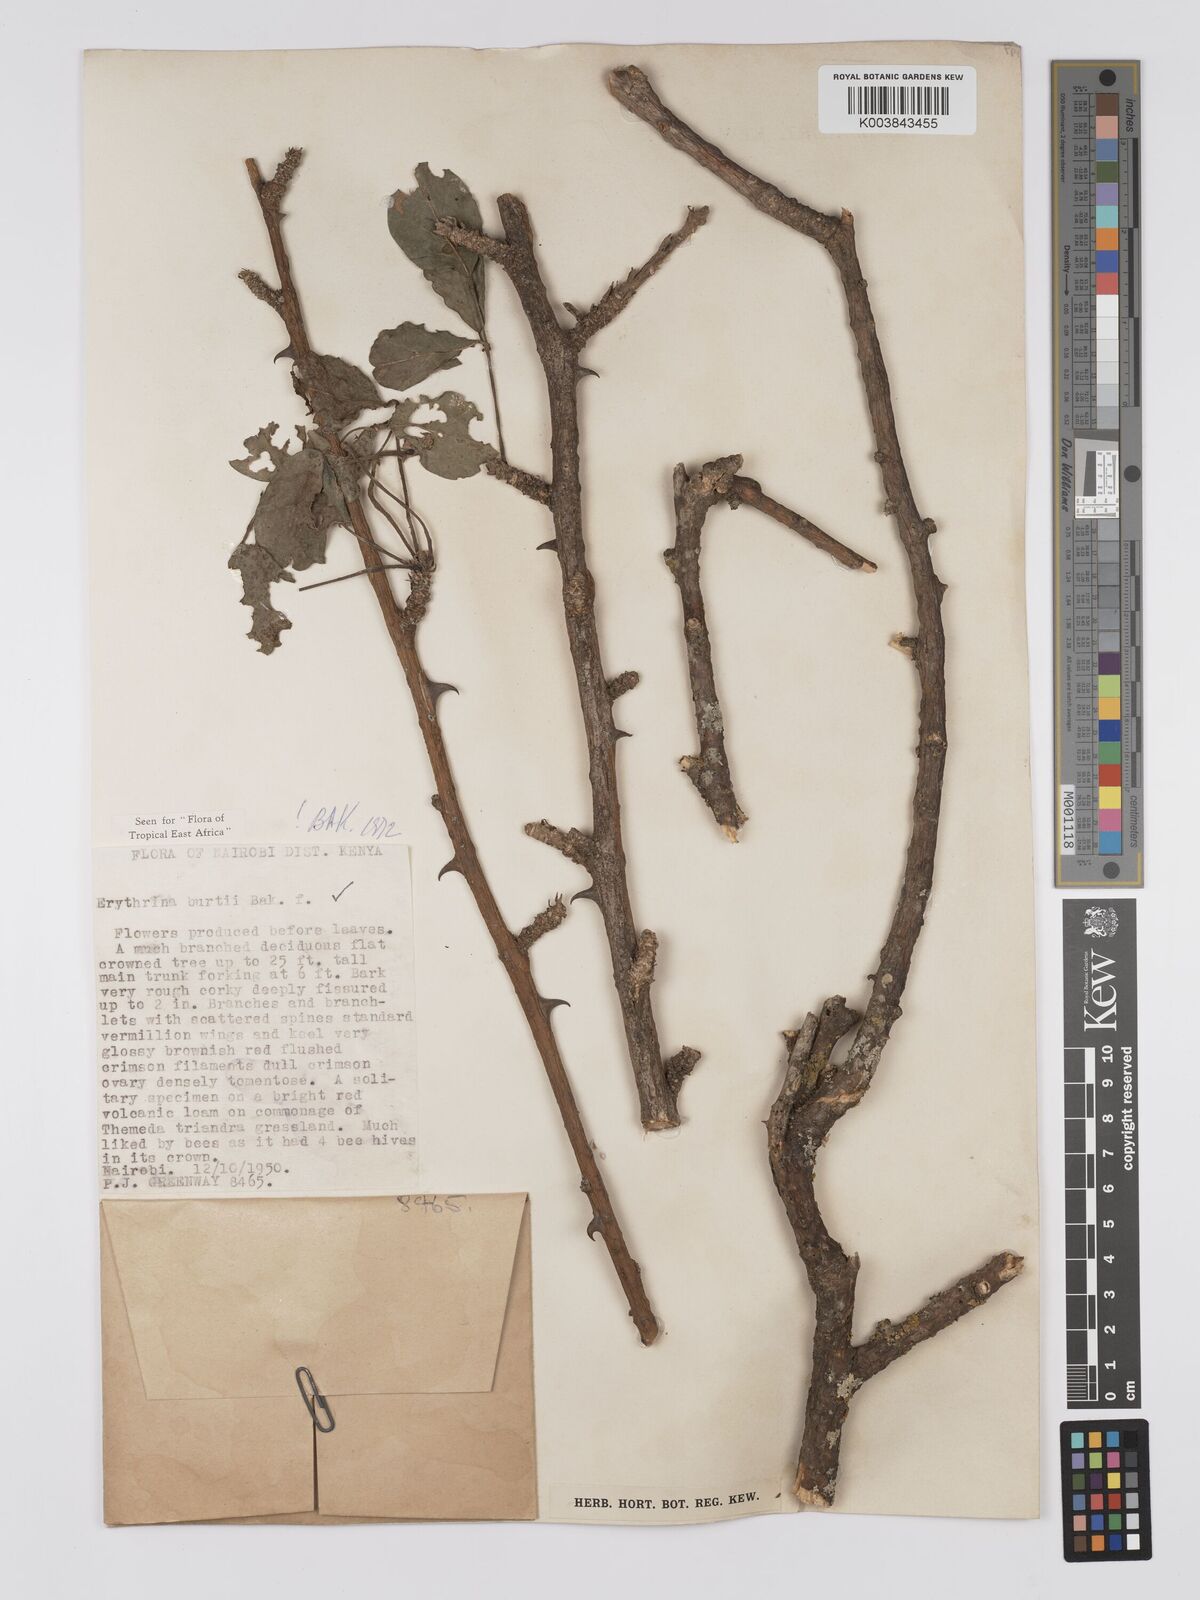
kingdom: Plantae
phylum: Tracheophyta
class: Magnoliopsida
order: Fabales
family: Fabaceae
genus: Erythrina
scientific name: Erythrina burttii
